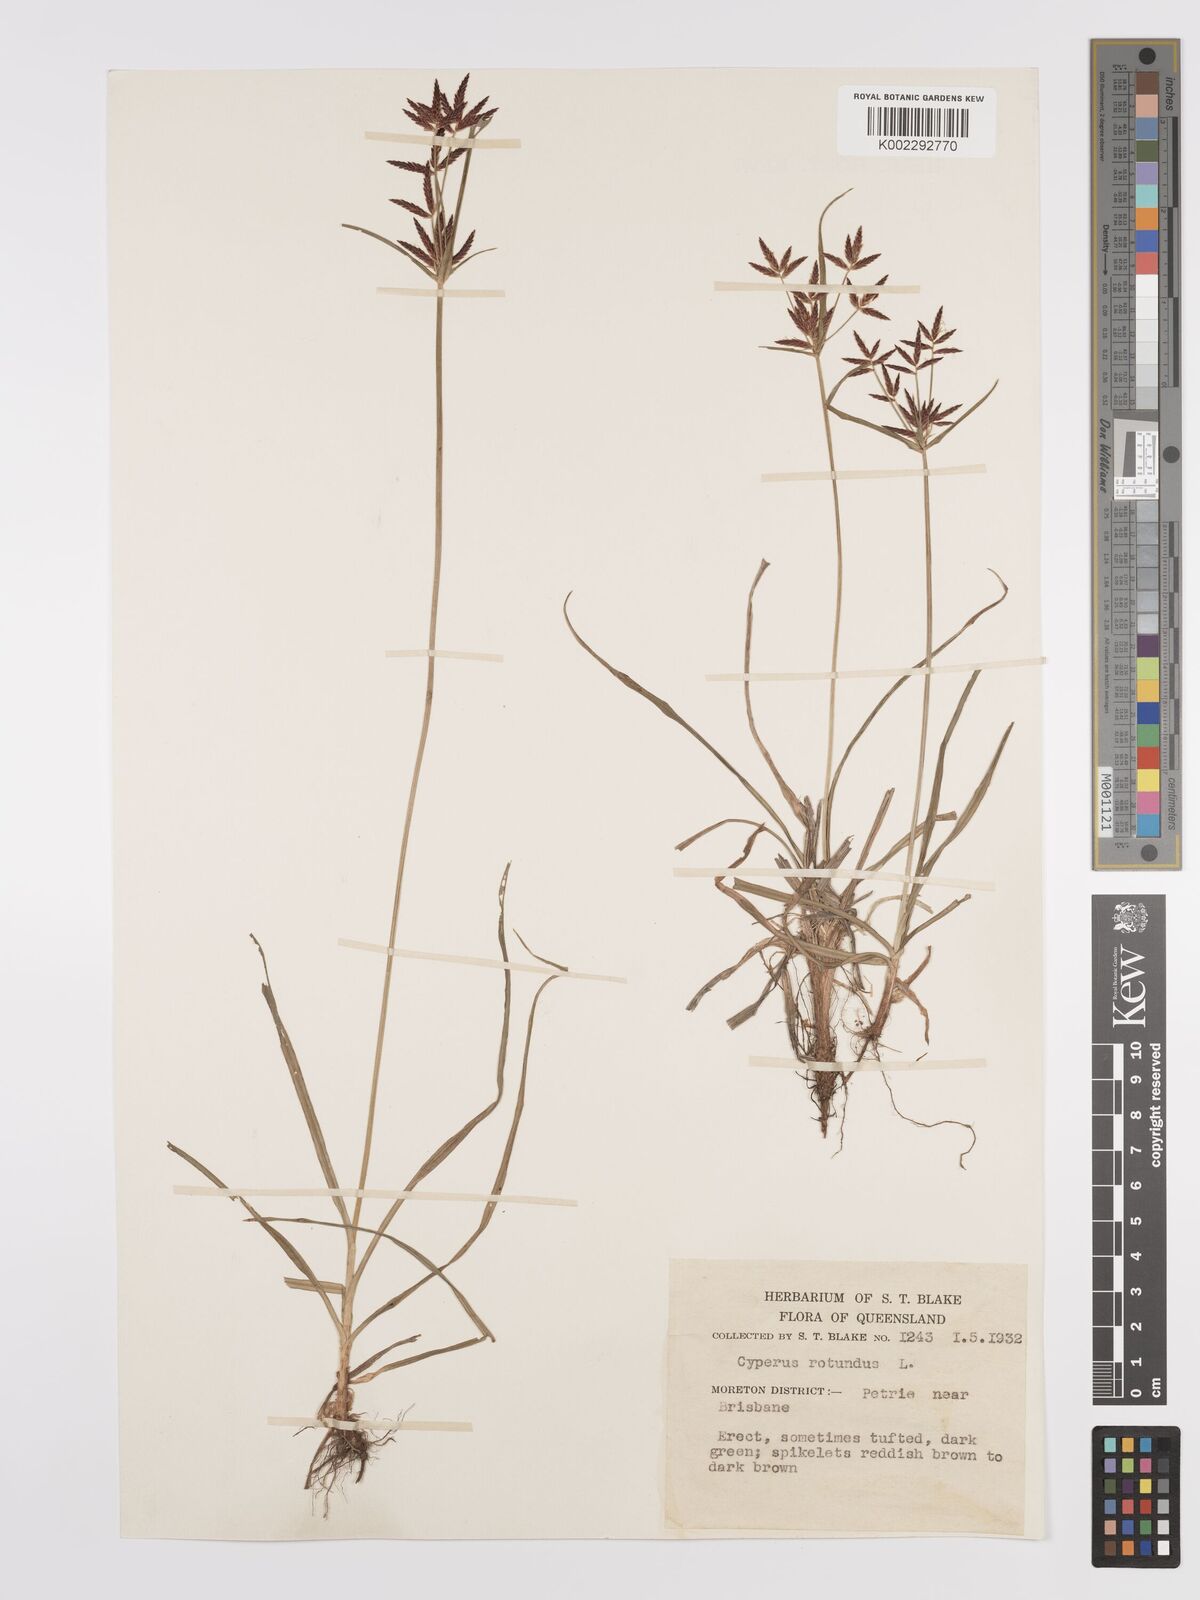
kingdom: Plantae
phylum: Tracheophyta
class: Liliopsida
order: Poales
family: Cyperaceae
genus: Cyperus
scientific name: Cyperus rotundus
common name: Nutgrass
